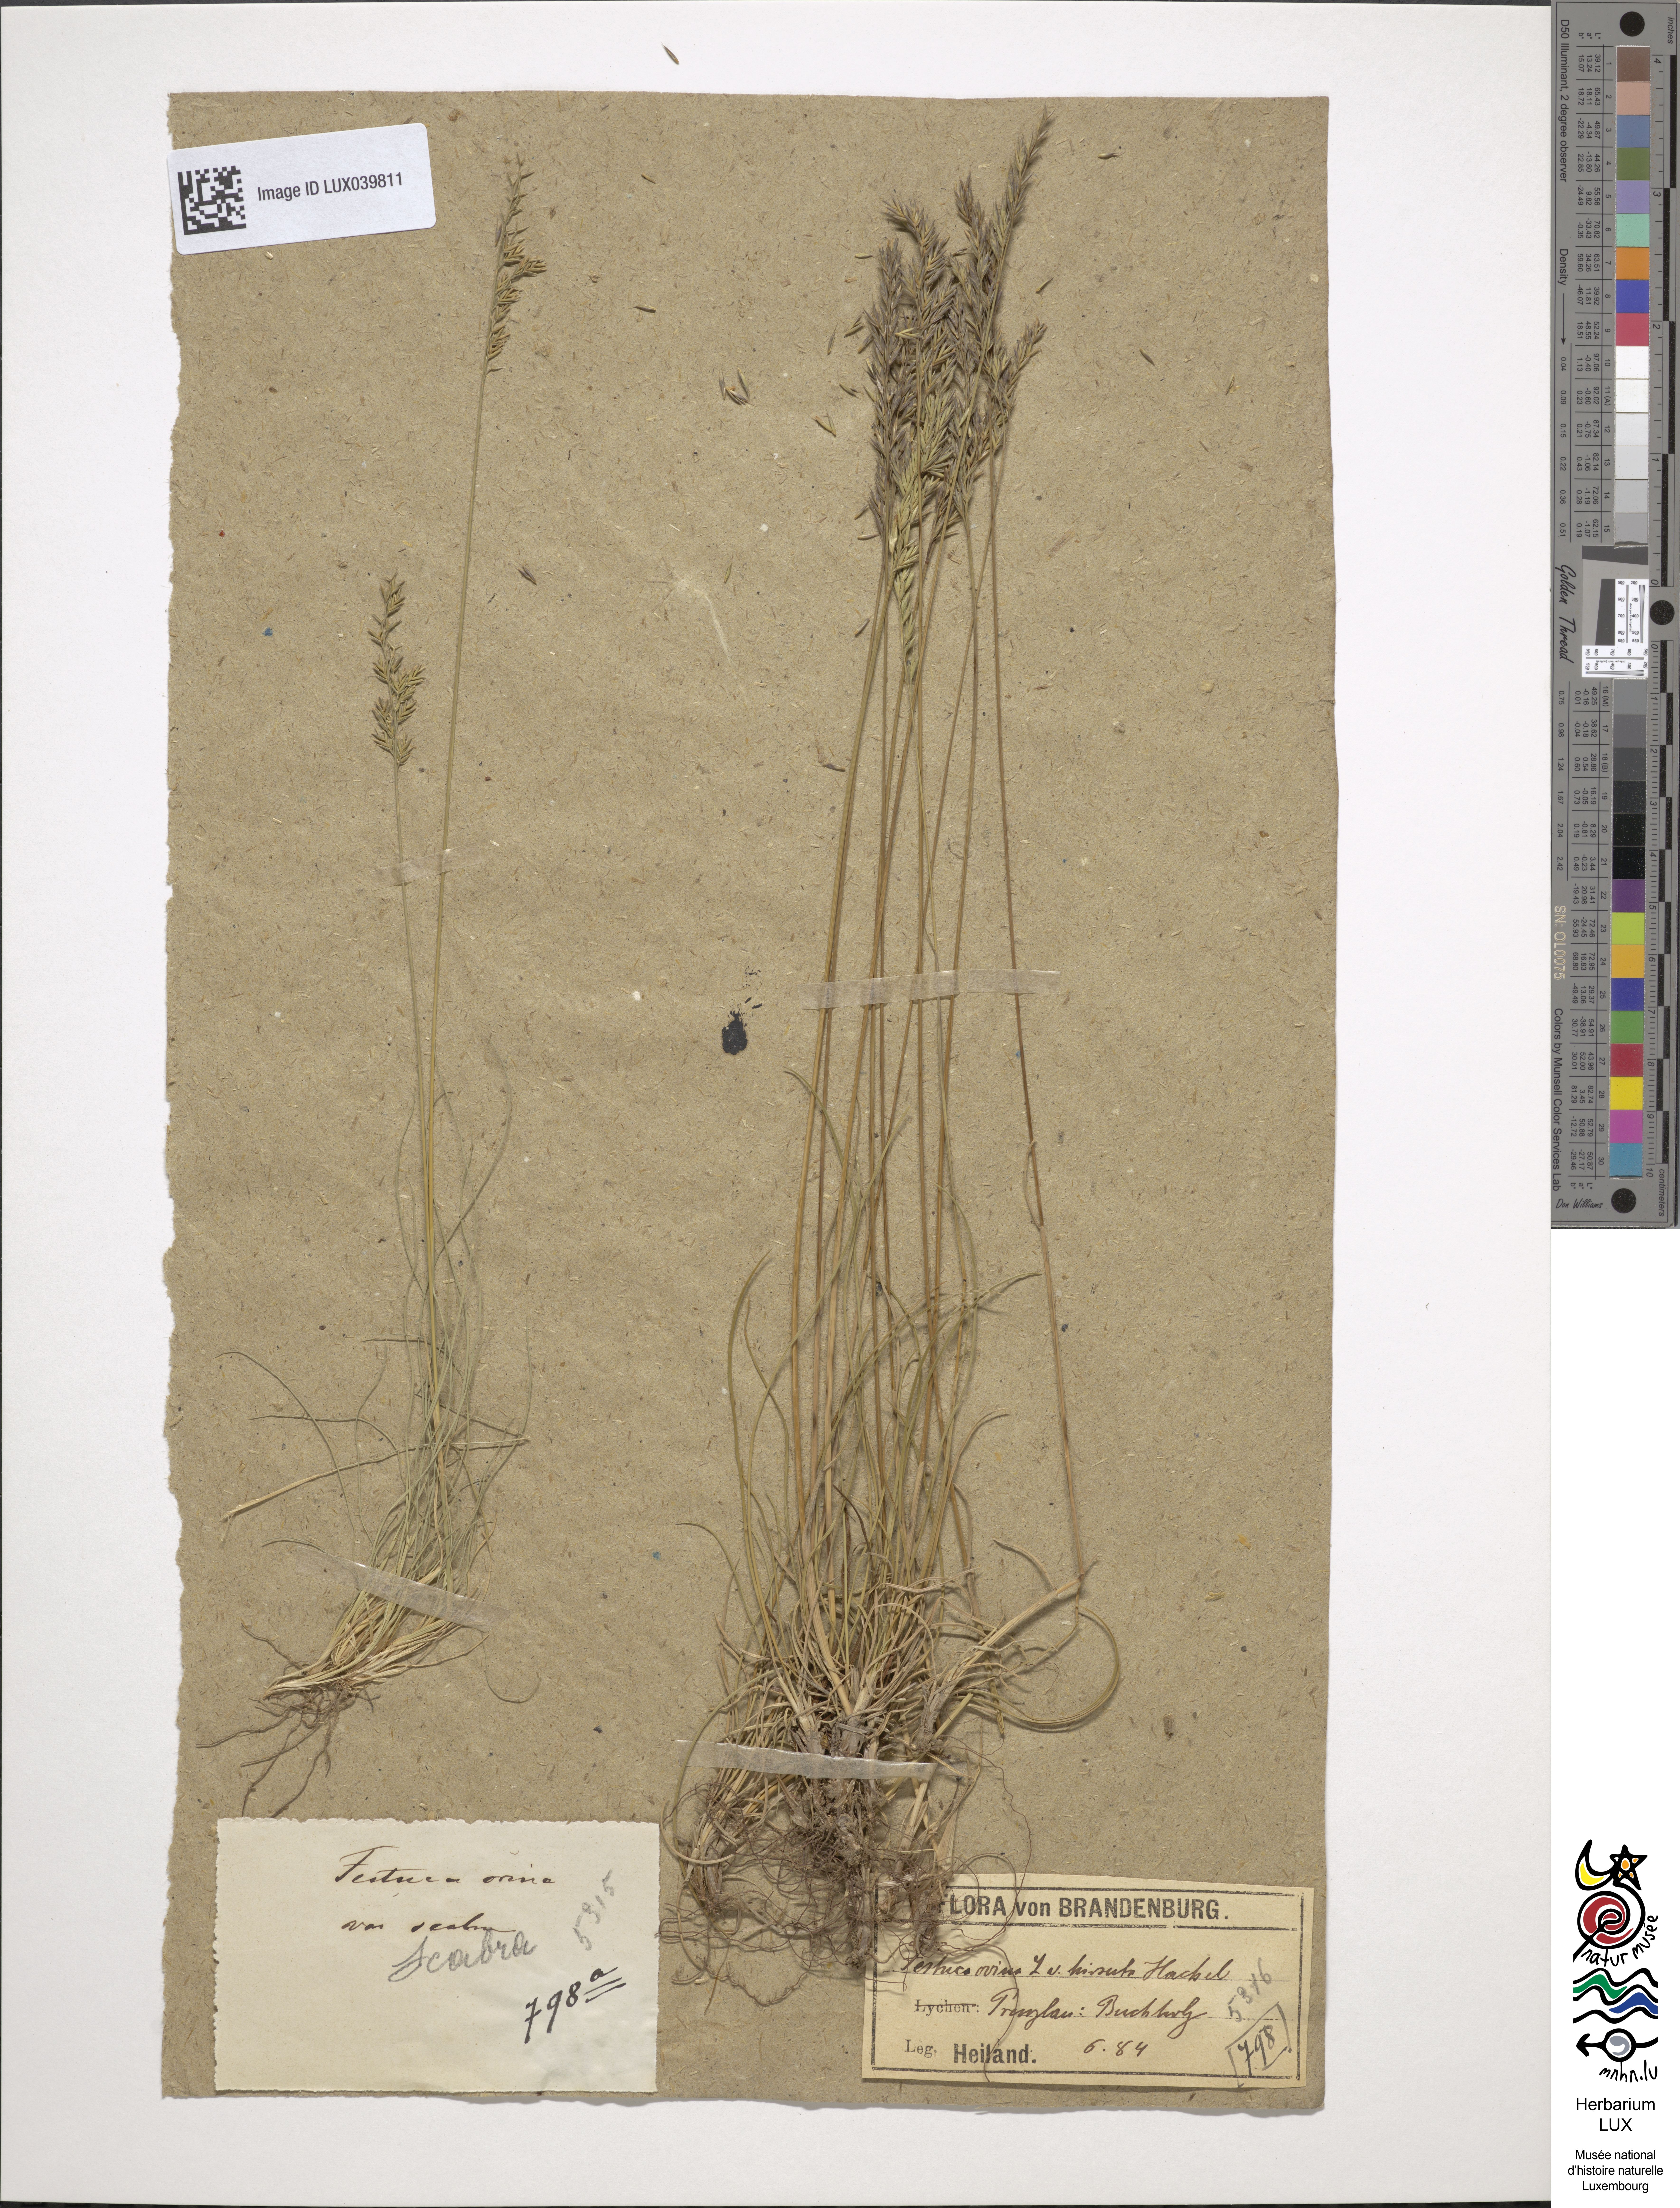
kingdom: Plantae
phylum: Tracheophyta
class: Liliopsida
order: Poales
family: Poaceae
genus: Festuca
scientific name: Festuca guestfalica
